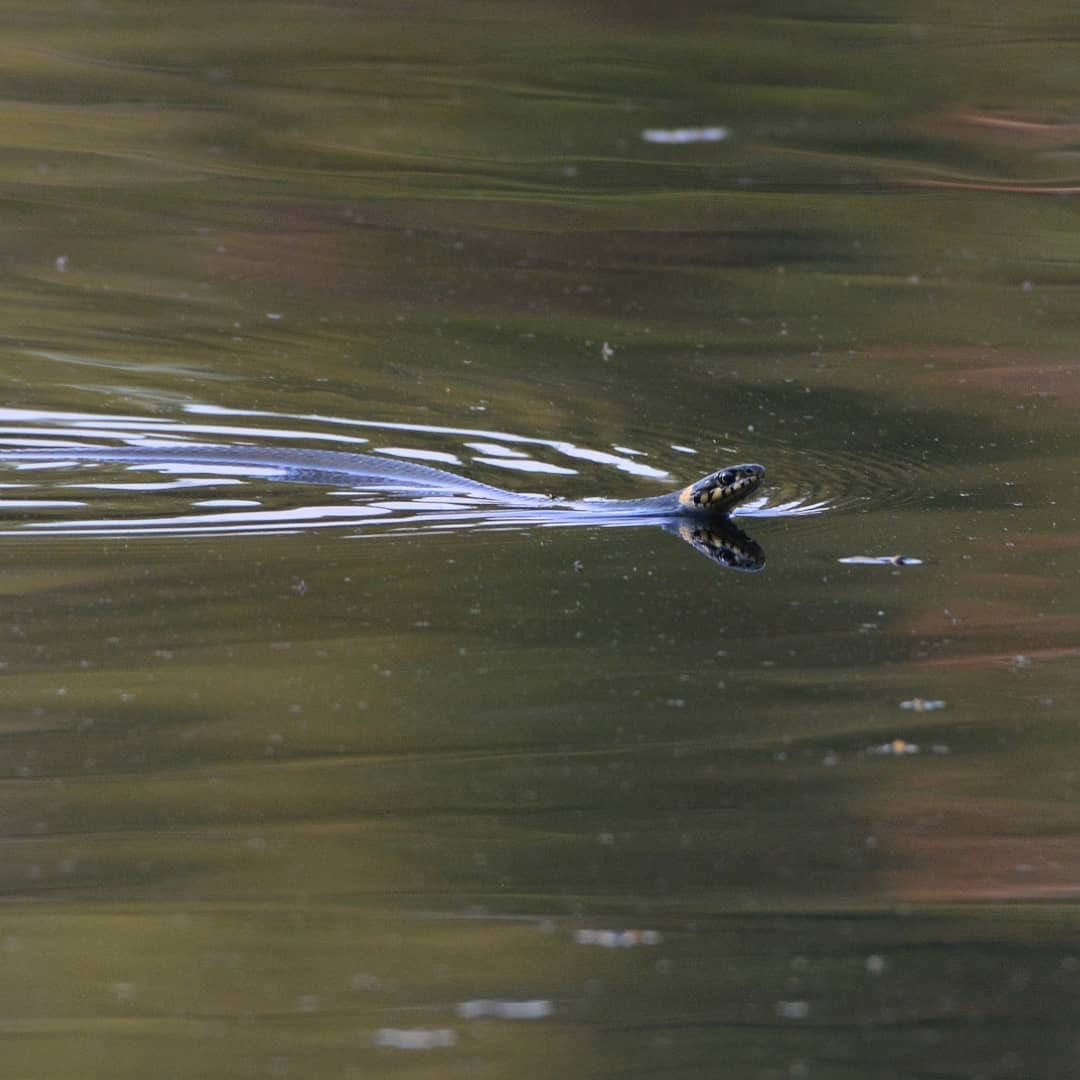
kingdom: Animalia
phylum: Chordata
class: Squamata
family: Colubridae
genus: Natrix
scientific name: Natrix natrix
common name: Grass snake
